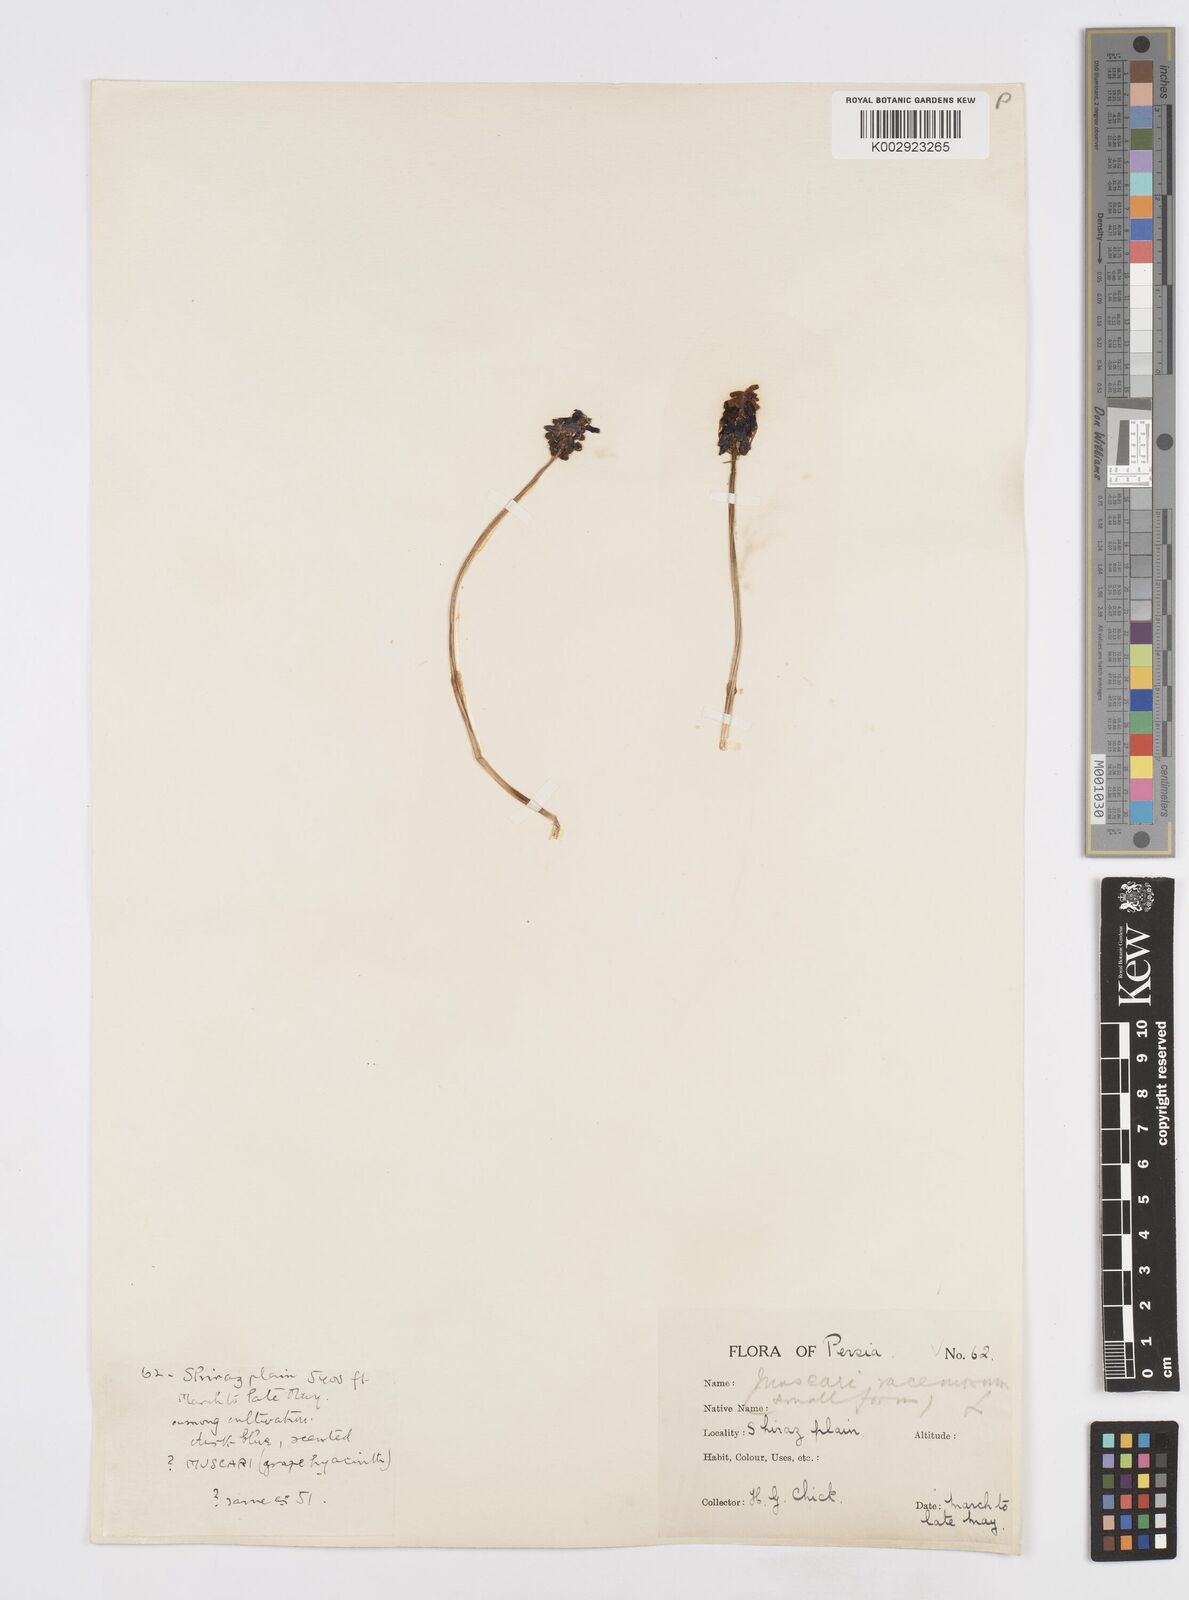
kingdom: Plantae
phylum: Tracheophyta
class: Liliopsida
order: Asparagales
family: Asparagaceae
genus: Muscari
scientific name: Muscari neglectum
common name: Grape-hyacinth
